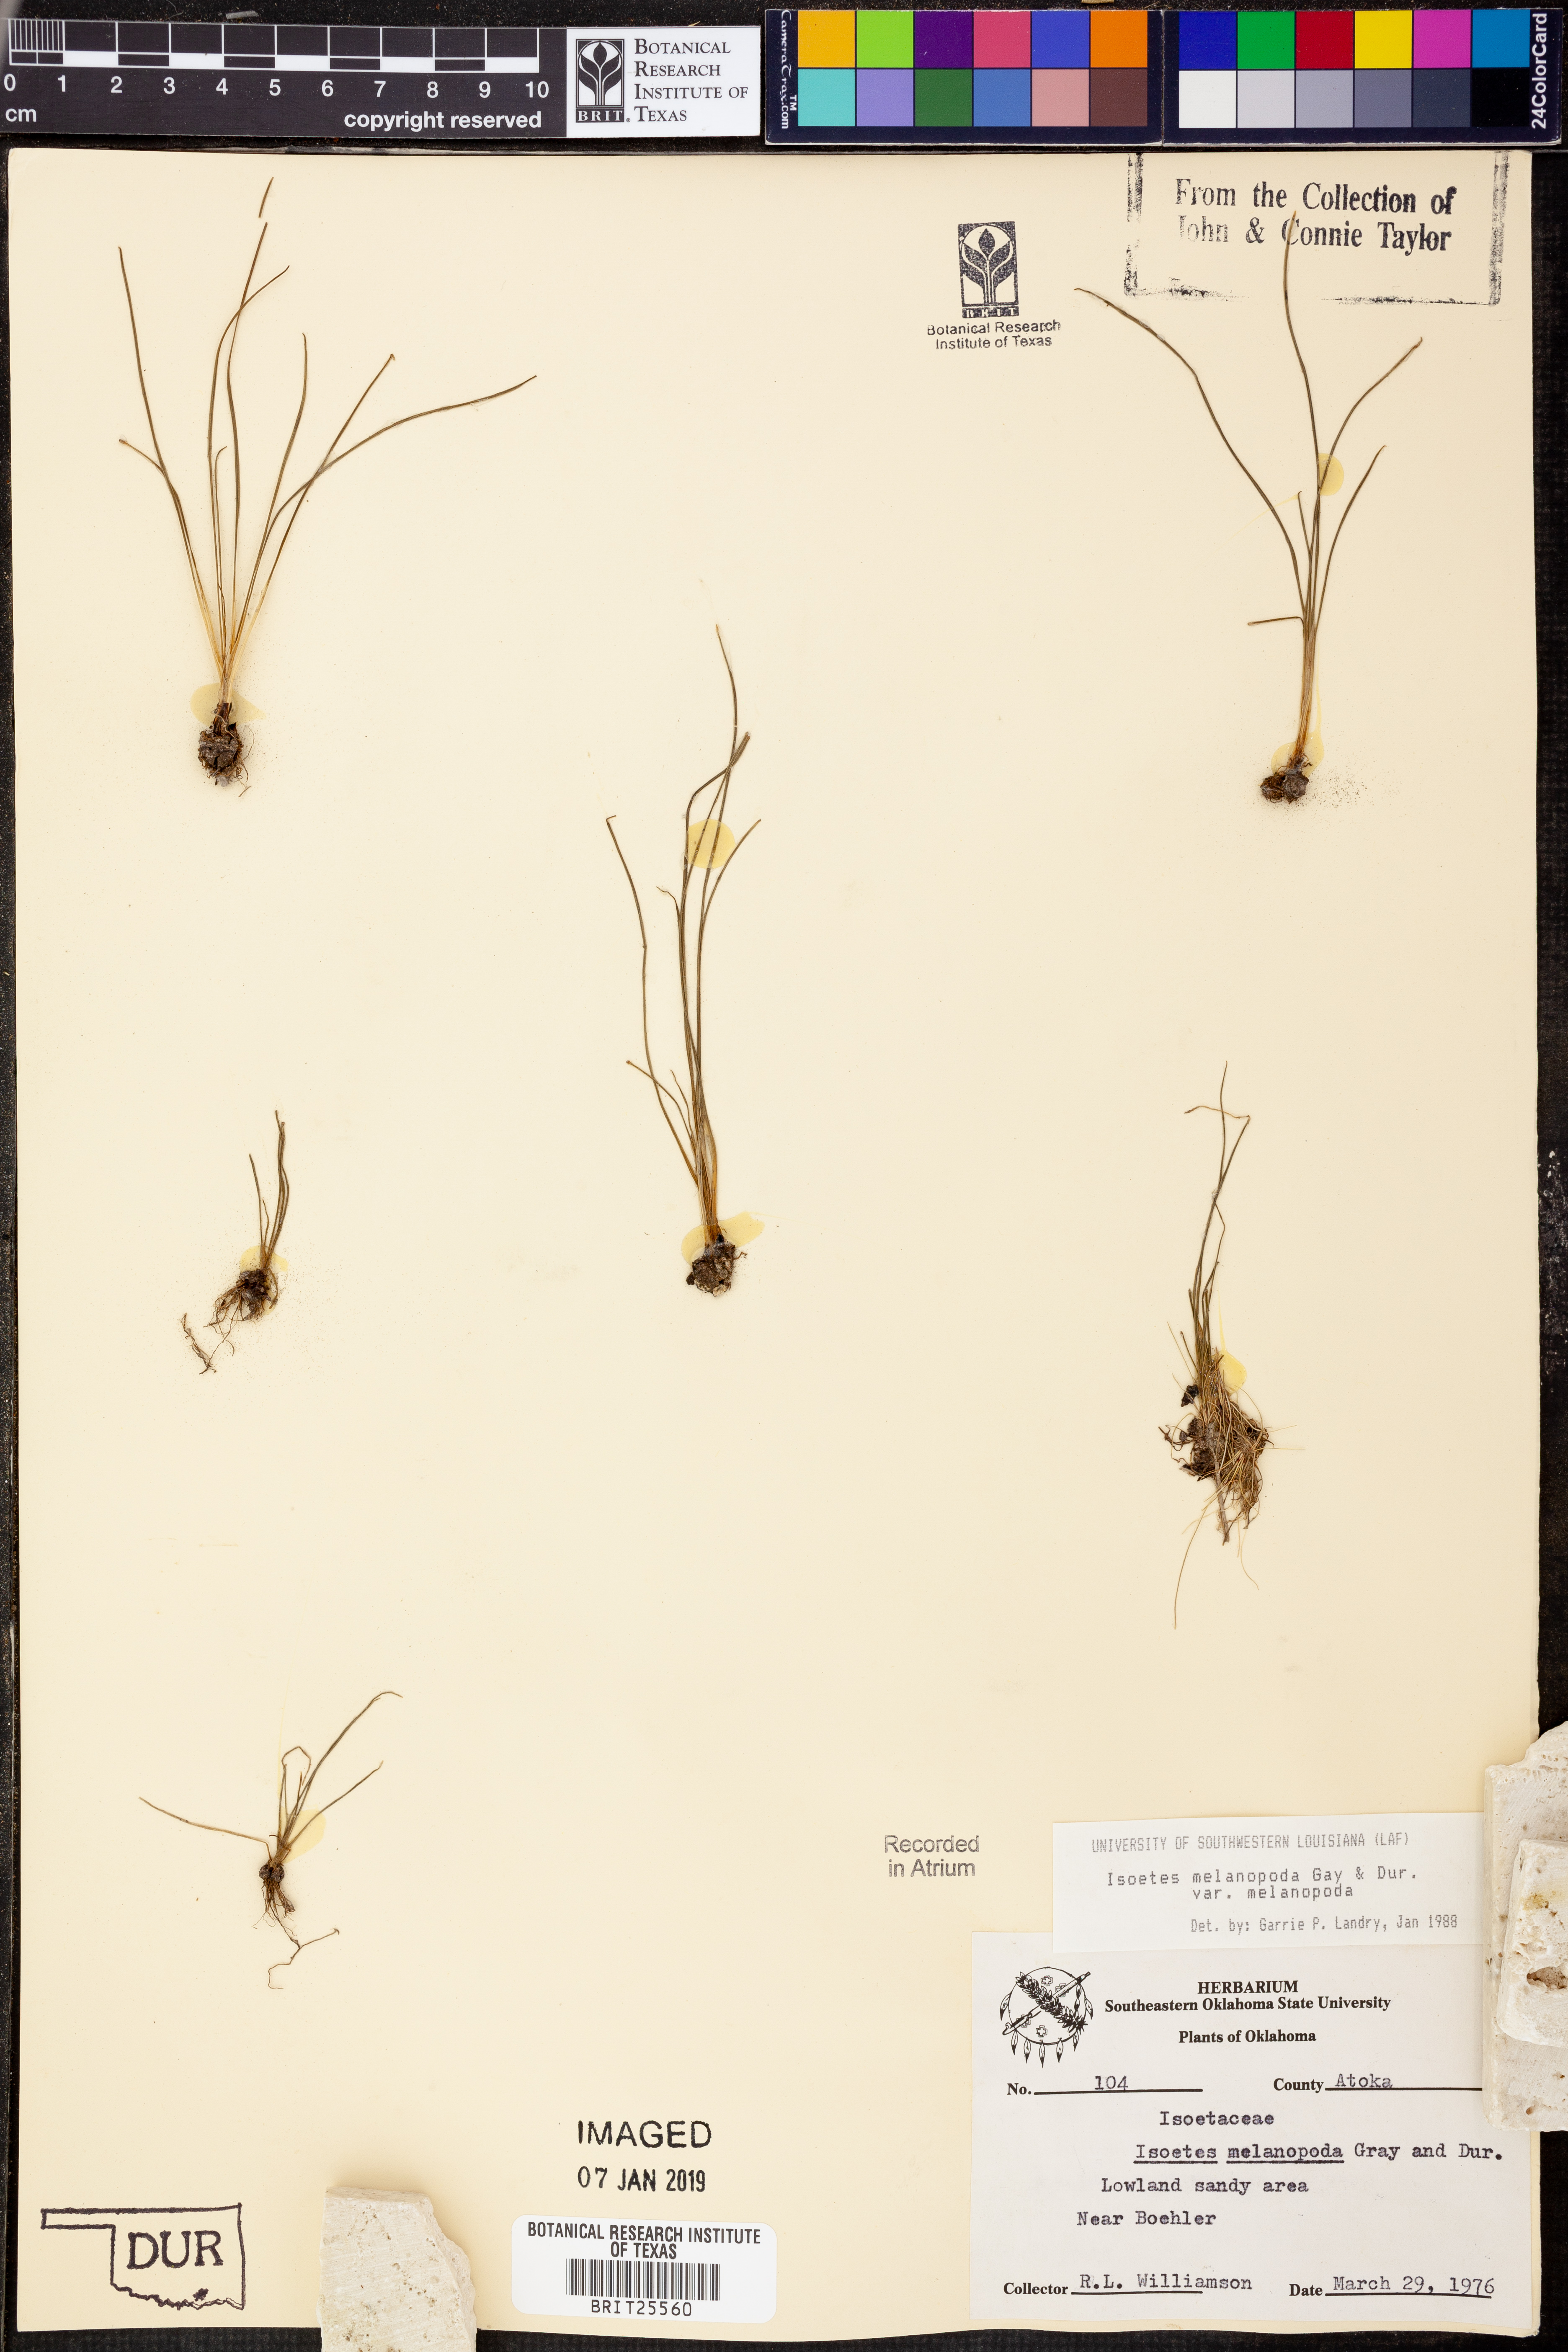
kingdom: Plantae
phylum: Tracheophyta
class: Lycopodiopsida
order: Isoetales
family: Isoetaceae
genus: Isoetes
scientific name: Isoetes melanopoda
